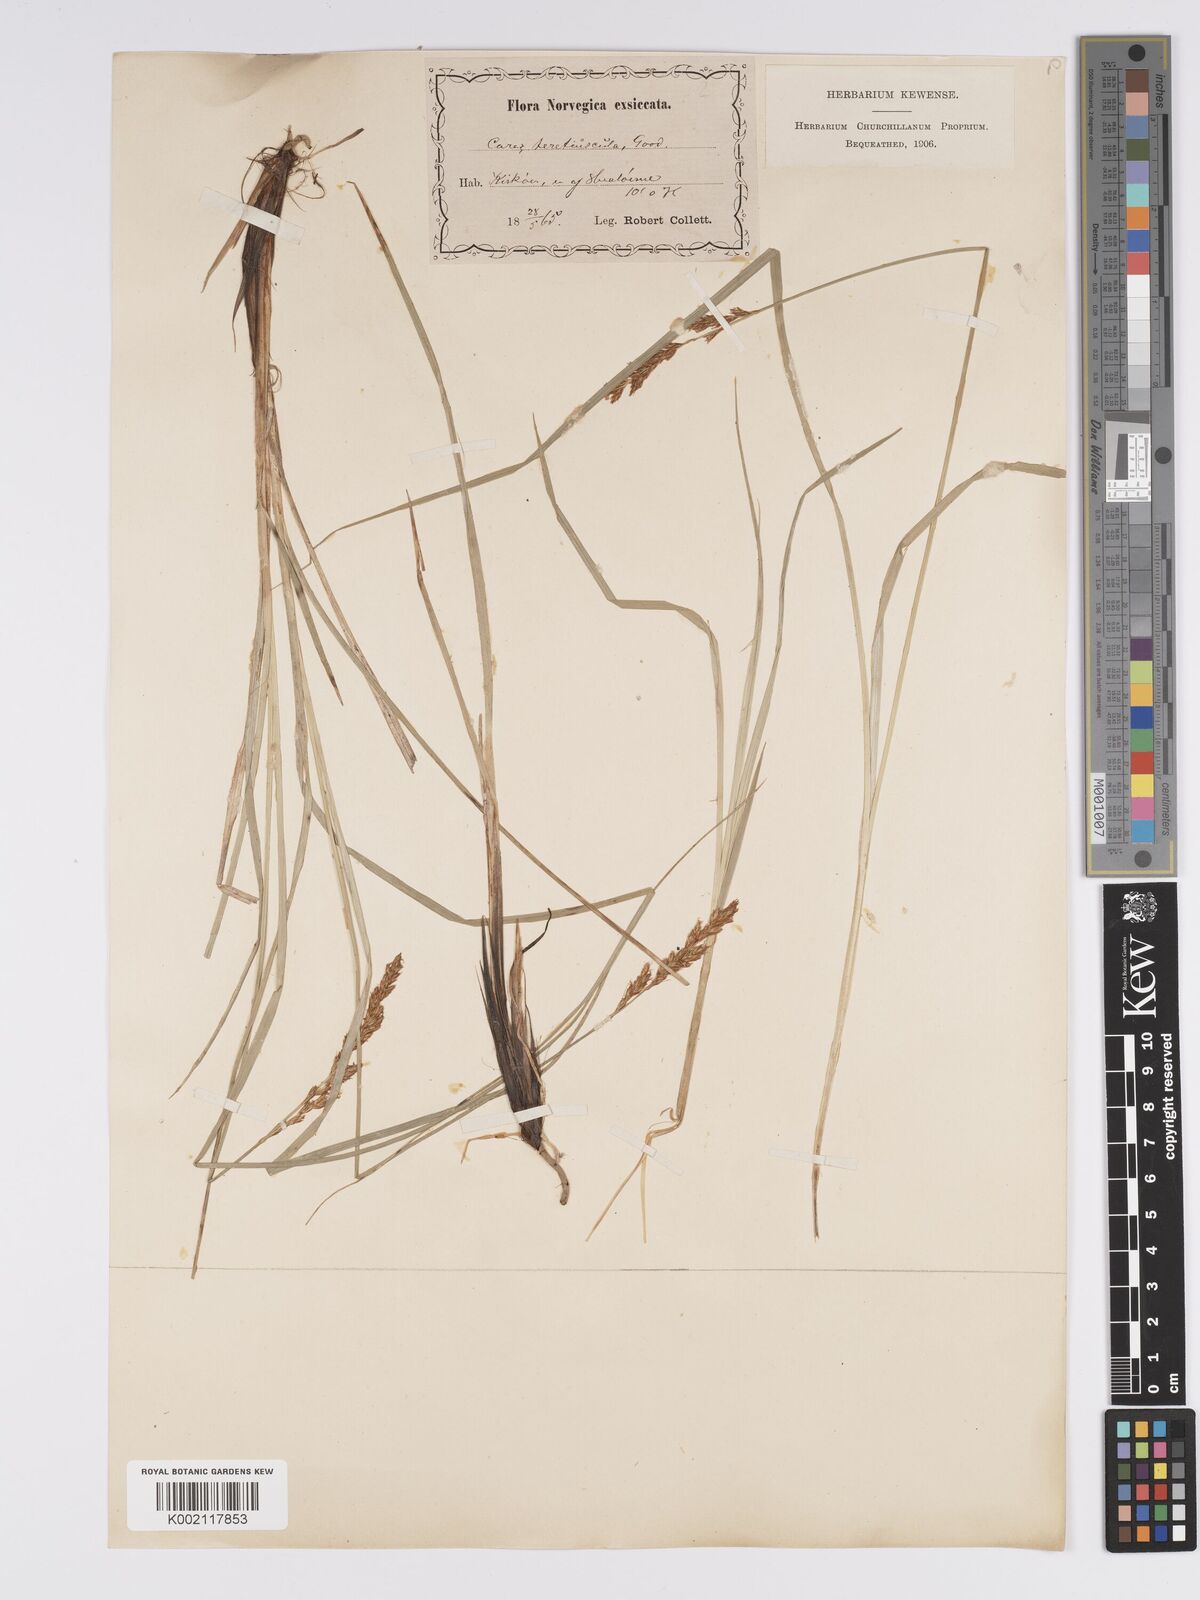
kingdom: Plantae
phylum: Tracheophyta
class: Liliopsida
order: Poales
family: Cyperaceae
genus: Carex
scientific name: Carex diandra
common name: Lesser tussock-sedge
